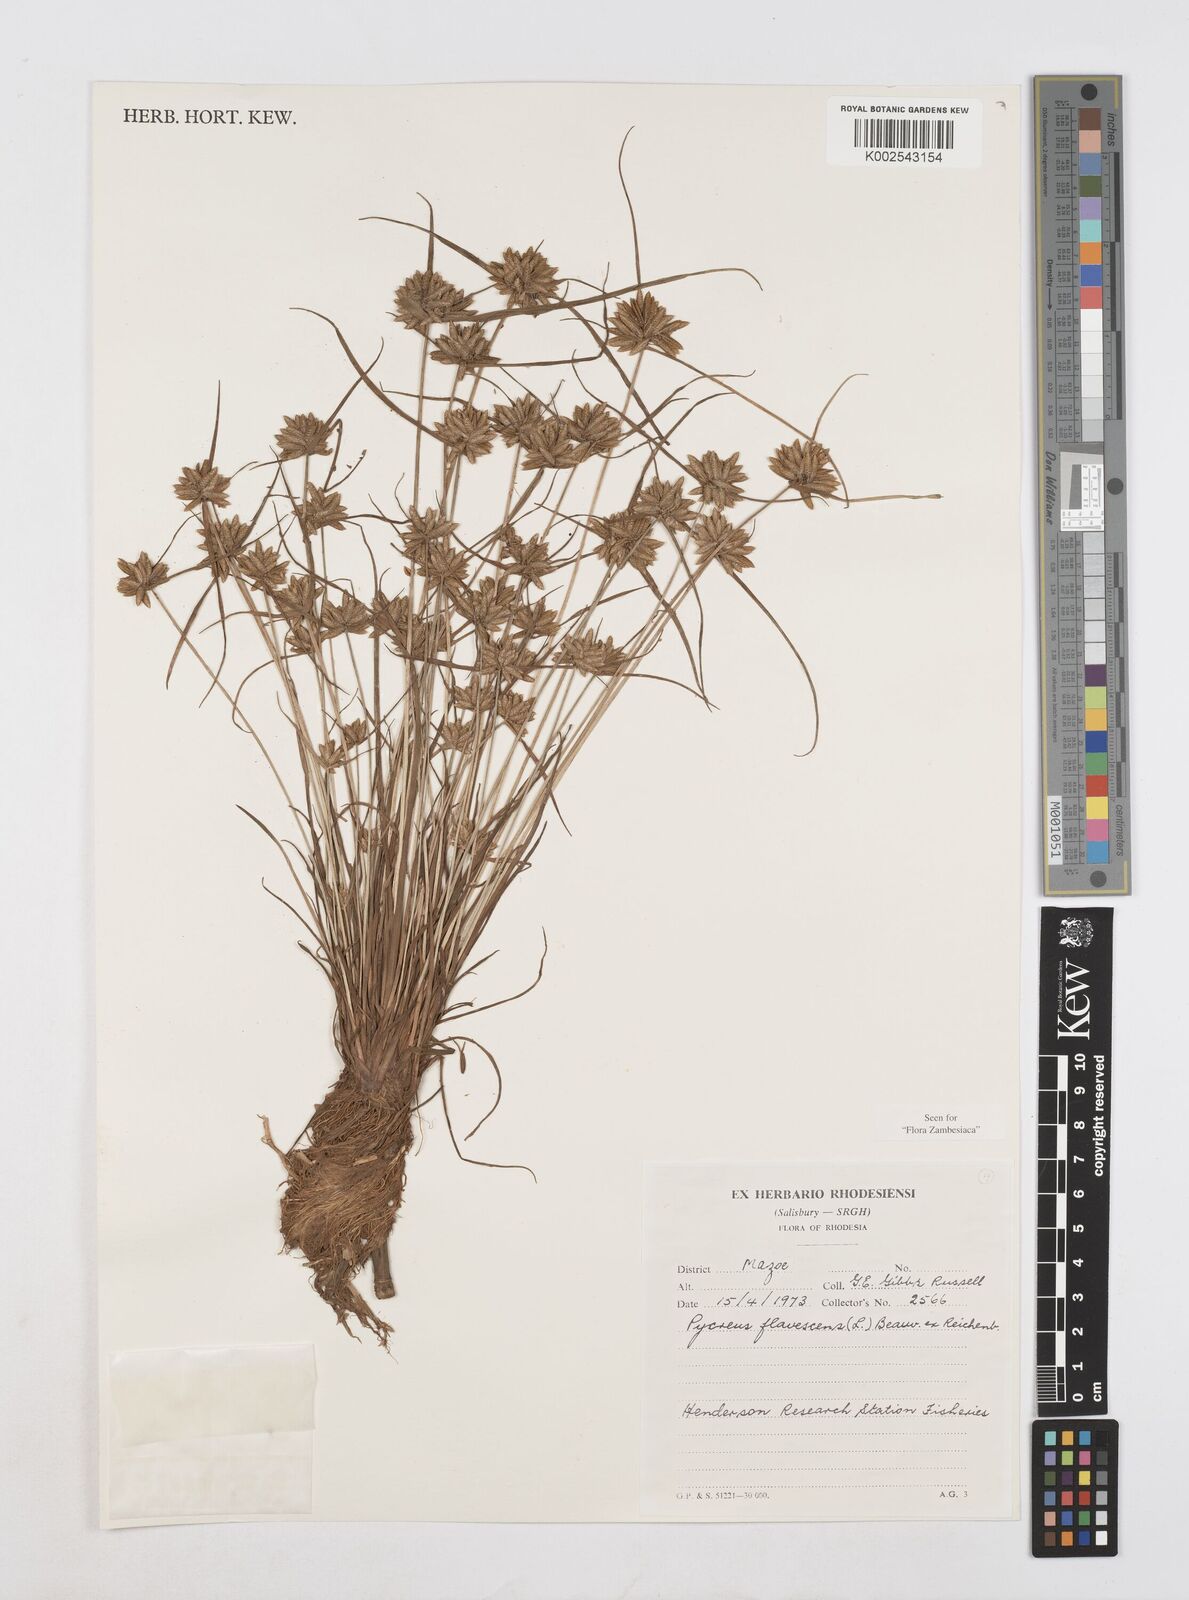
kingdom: Plantae
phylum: Tracheophyta
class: Liliopsida
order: Poales
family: Cyperaceae
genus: Cyperus
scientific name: Cyperus flavescens
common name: Yellow galingale
